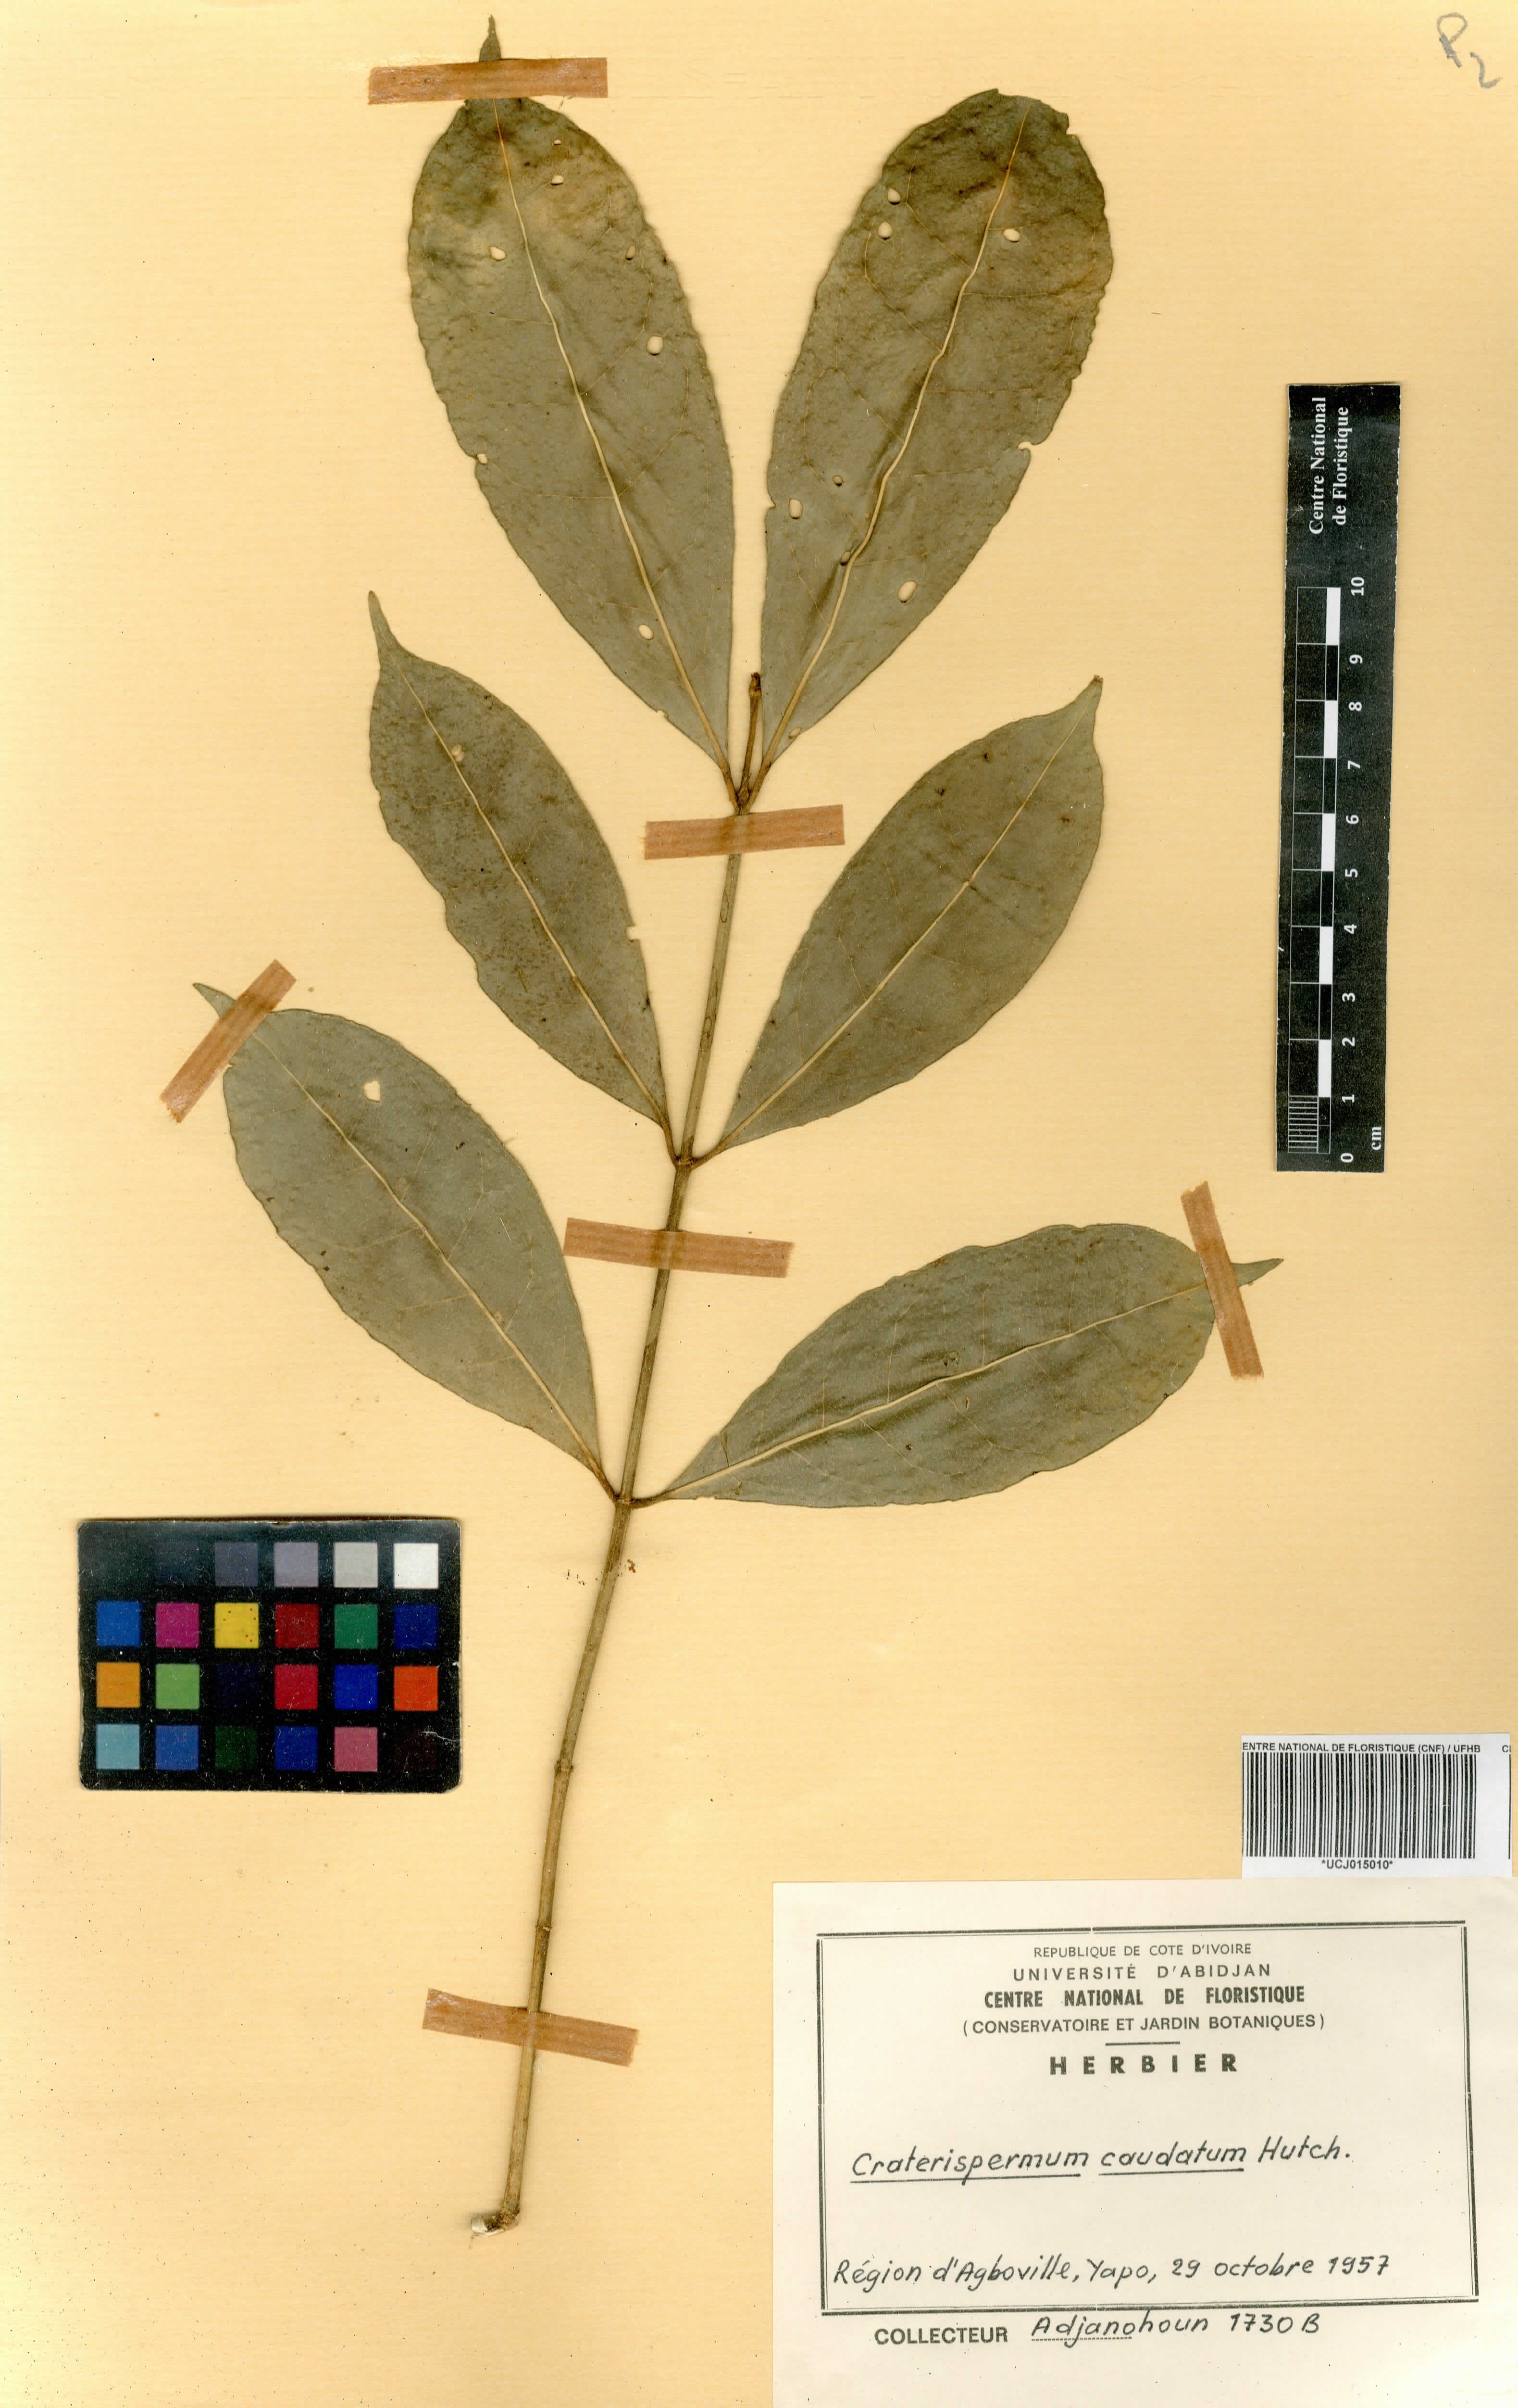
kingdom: Plantae
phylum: Tracheophyta
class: Magnoliopsida
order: Gentianales
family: Rubiaceae
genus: Craterispermum
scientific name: Craterispermum caudatum
